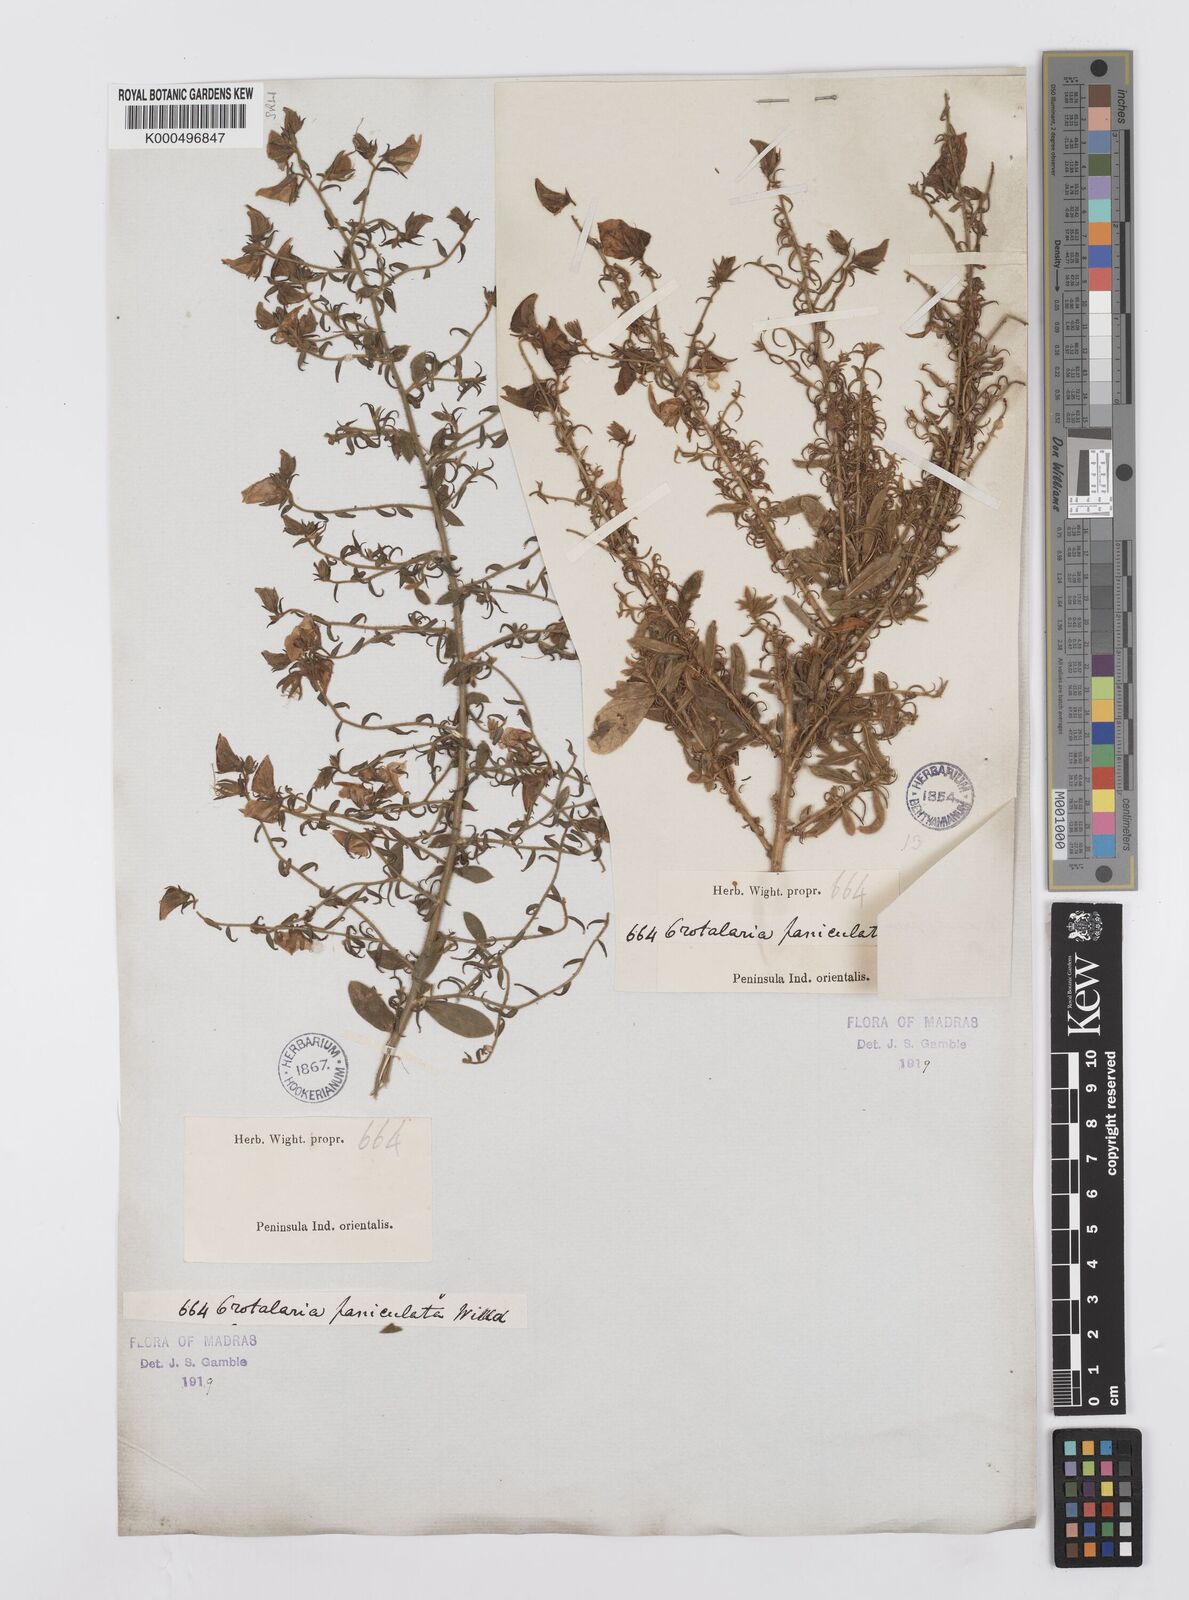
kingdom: Plantae
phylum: Tracheophyta
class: Magnoliopsida
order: Fabales
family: Fabaceae
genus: Crotalaria
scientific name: Crotalaria paniculata
